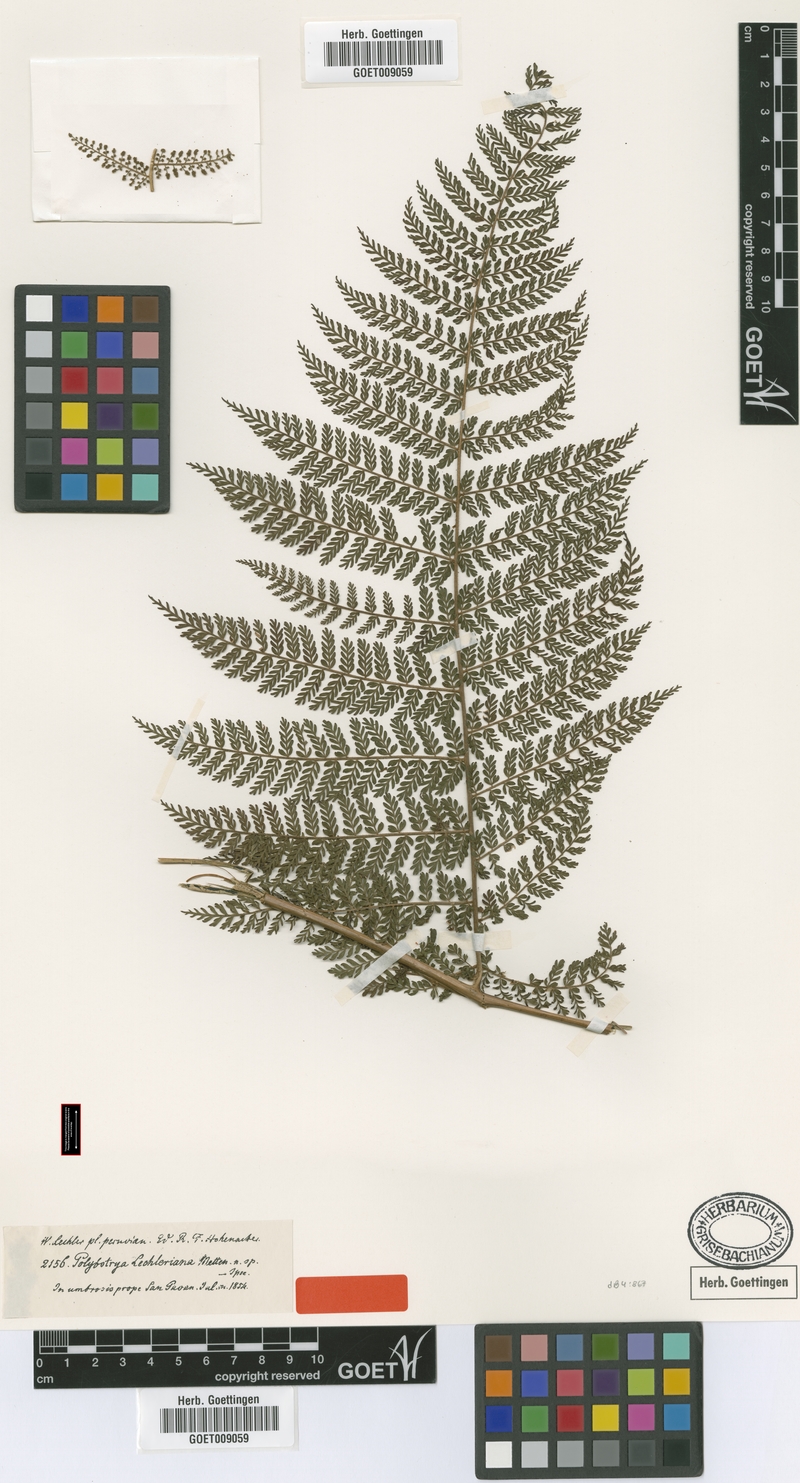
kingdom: Plantae
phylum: Tracheophyta
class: Polypodiopsida
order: Polypodiales
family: Dryopteridaceae
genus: Polybotrya
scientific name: Polybotrya lechleriana
